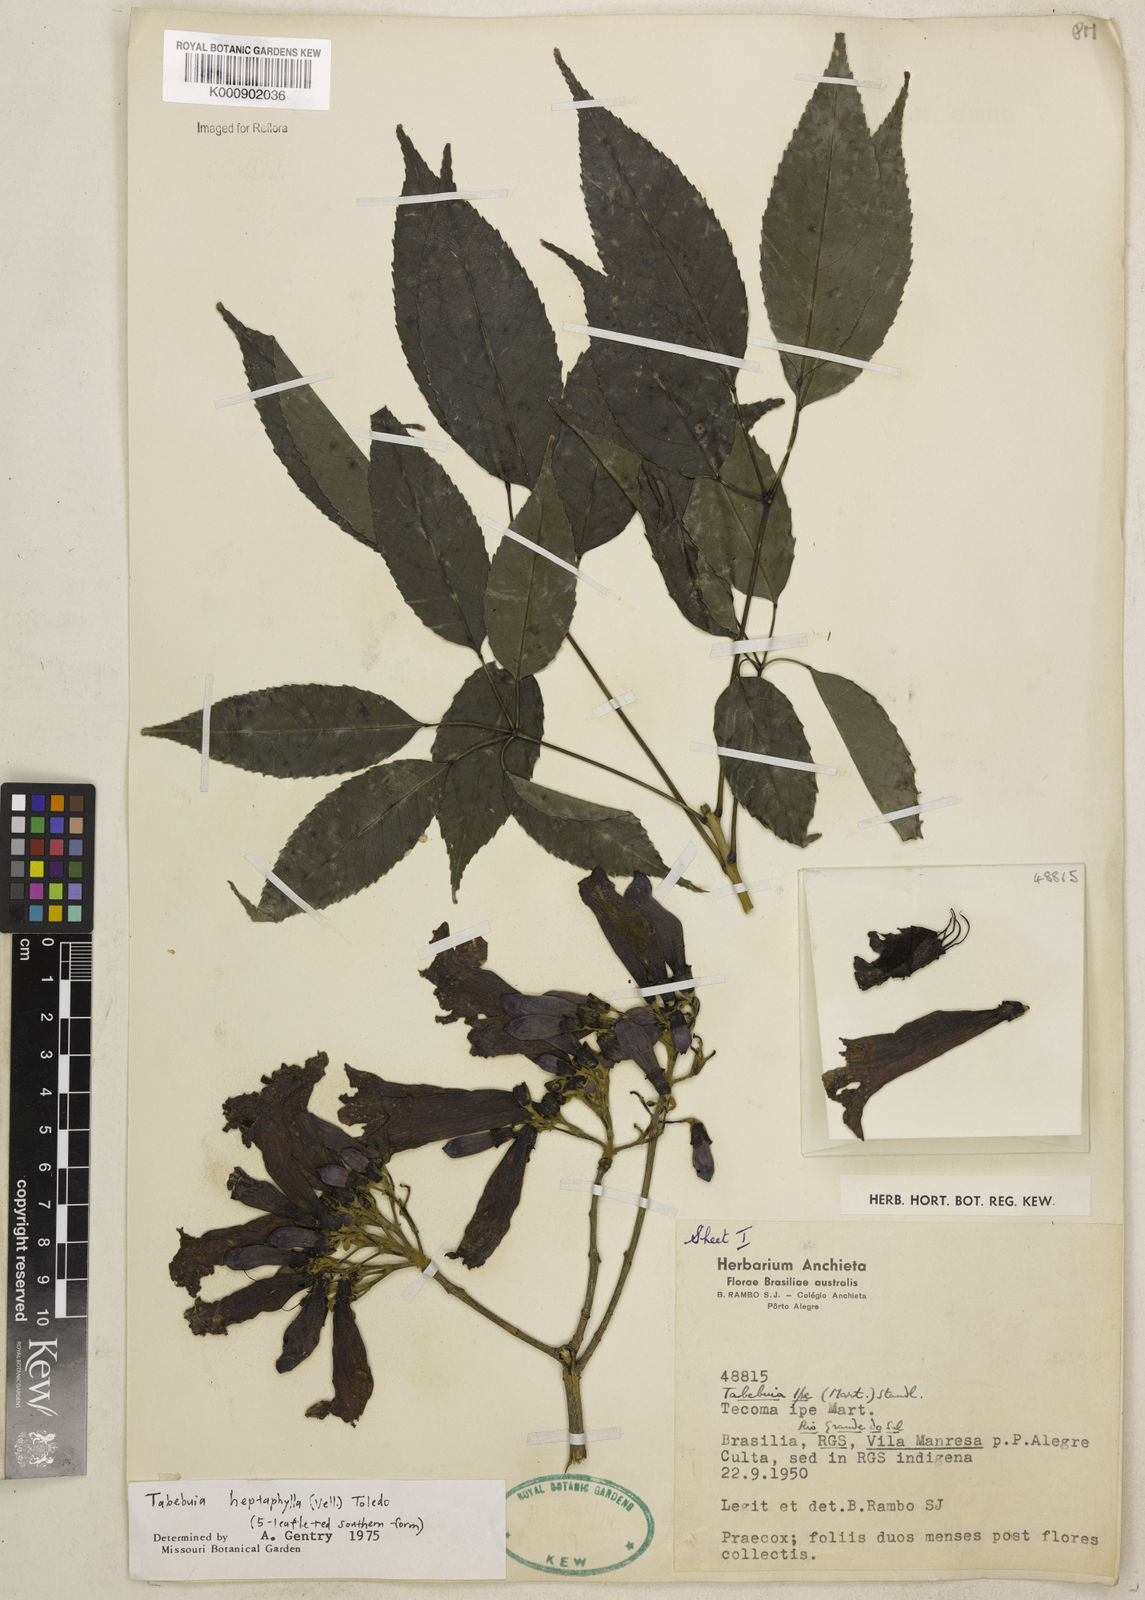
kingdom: Plantae
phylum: Tracheophyta
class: Magnoliopsida
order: Lamiales
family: Bignoniaceae
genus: Handroanthus
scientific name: Handroanthus heptaphyllus
